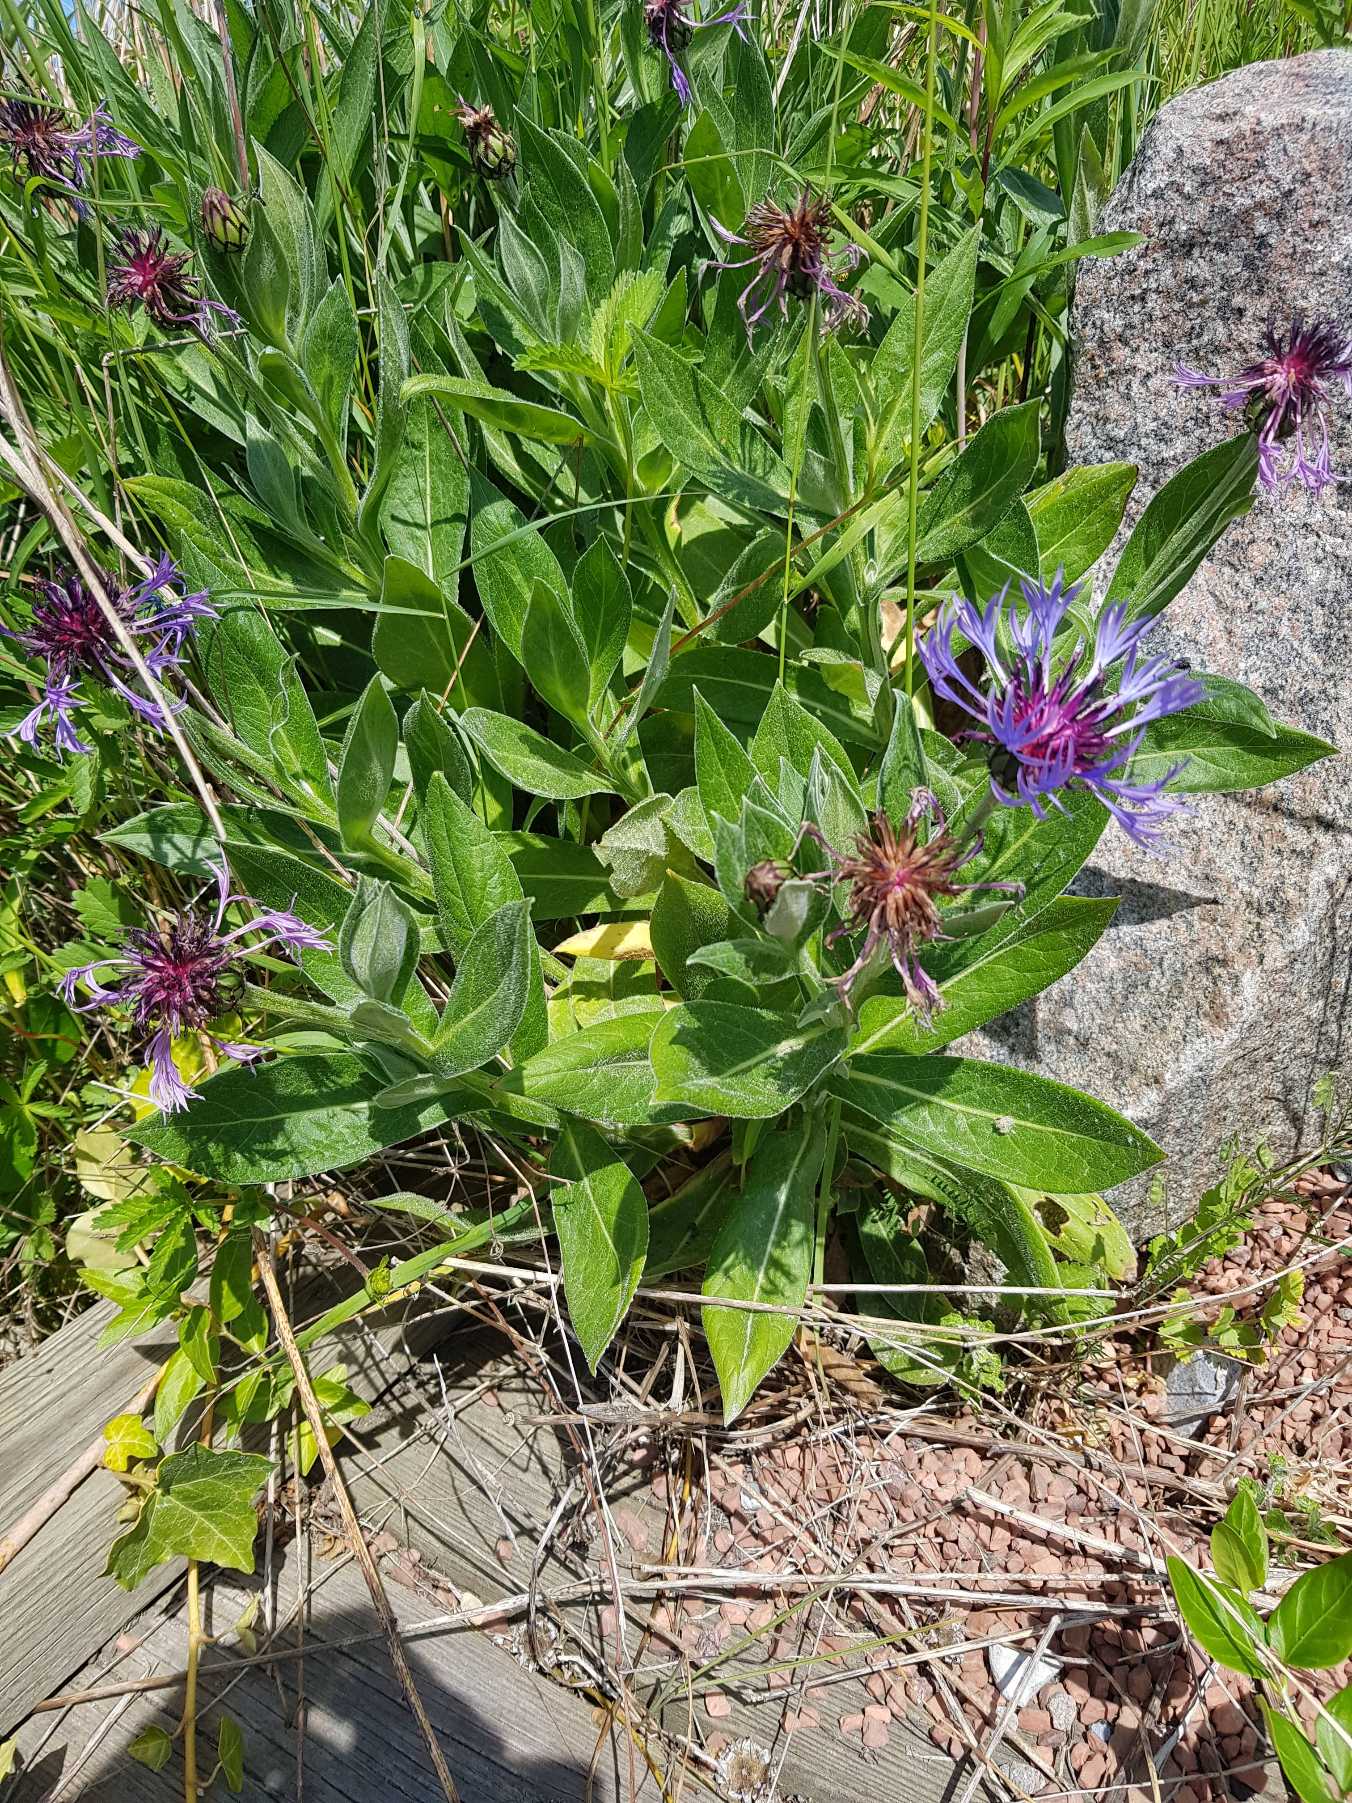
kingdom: Plantae
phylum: Tracheophyta
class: Magnoliopsida
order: Asterales
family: Asteraceae
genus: Centaurea
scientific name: Centaurea montana
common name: Bjerg-knopurt
